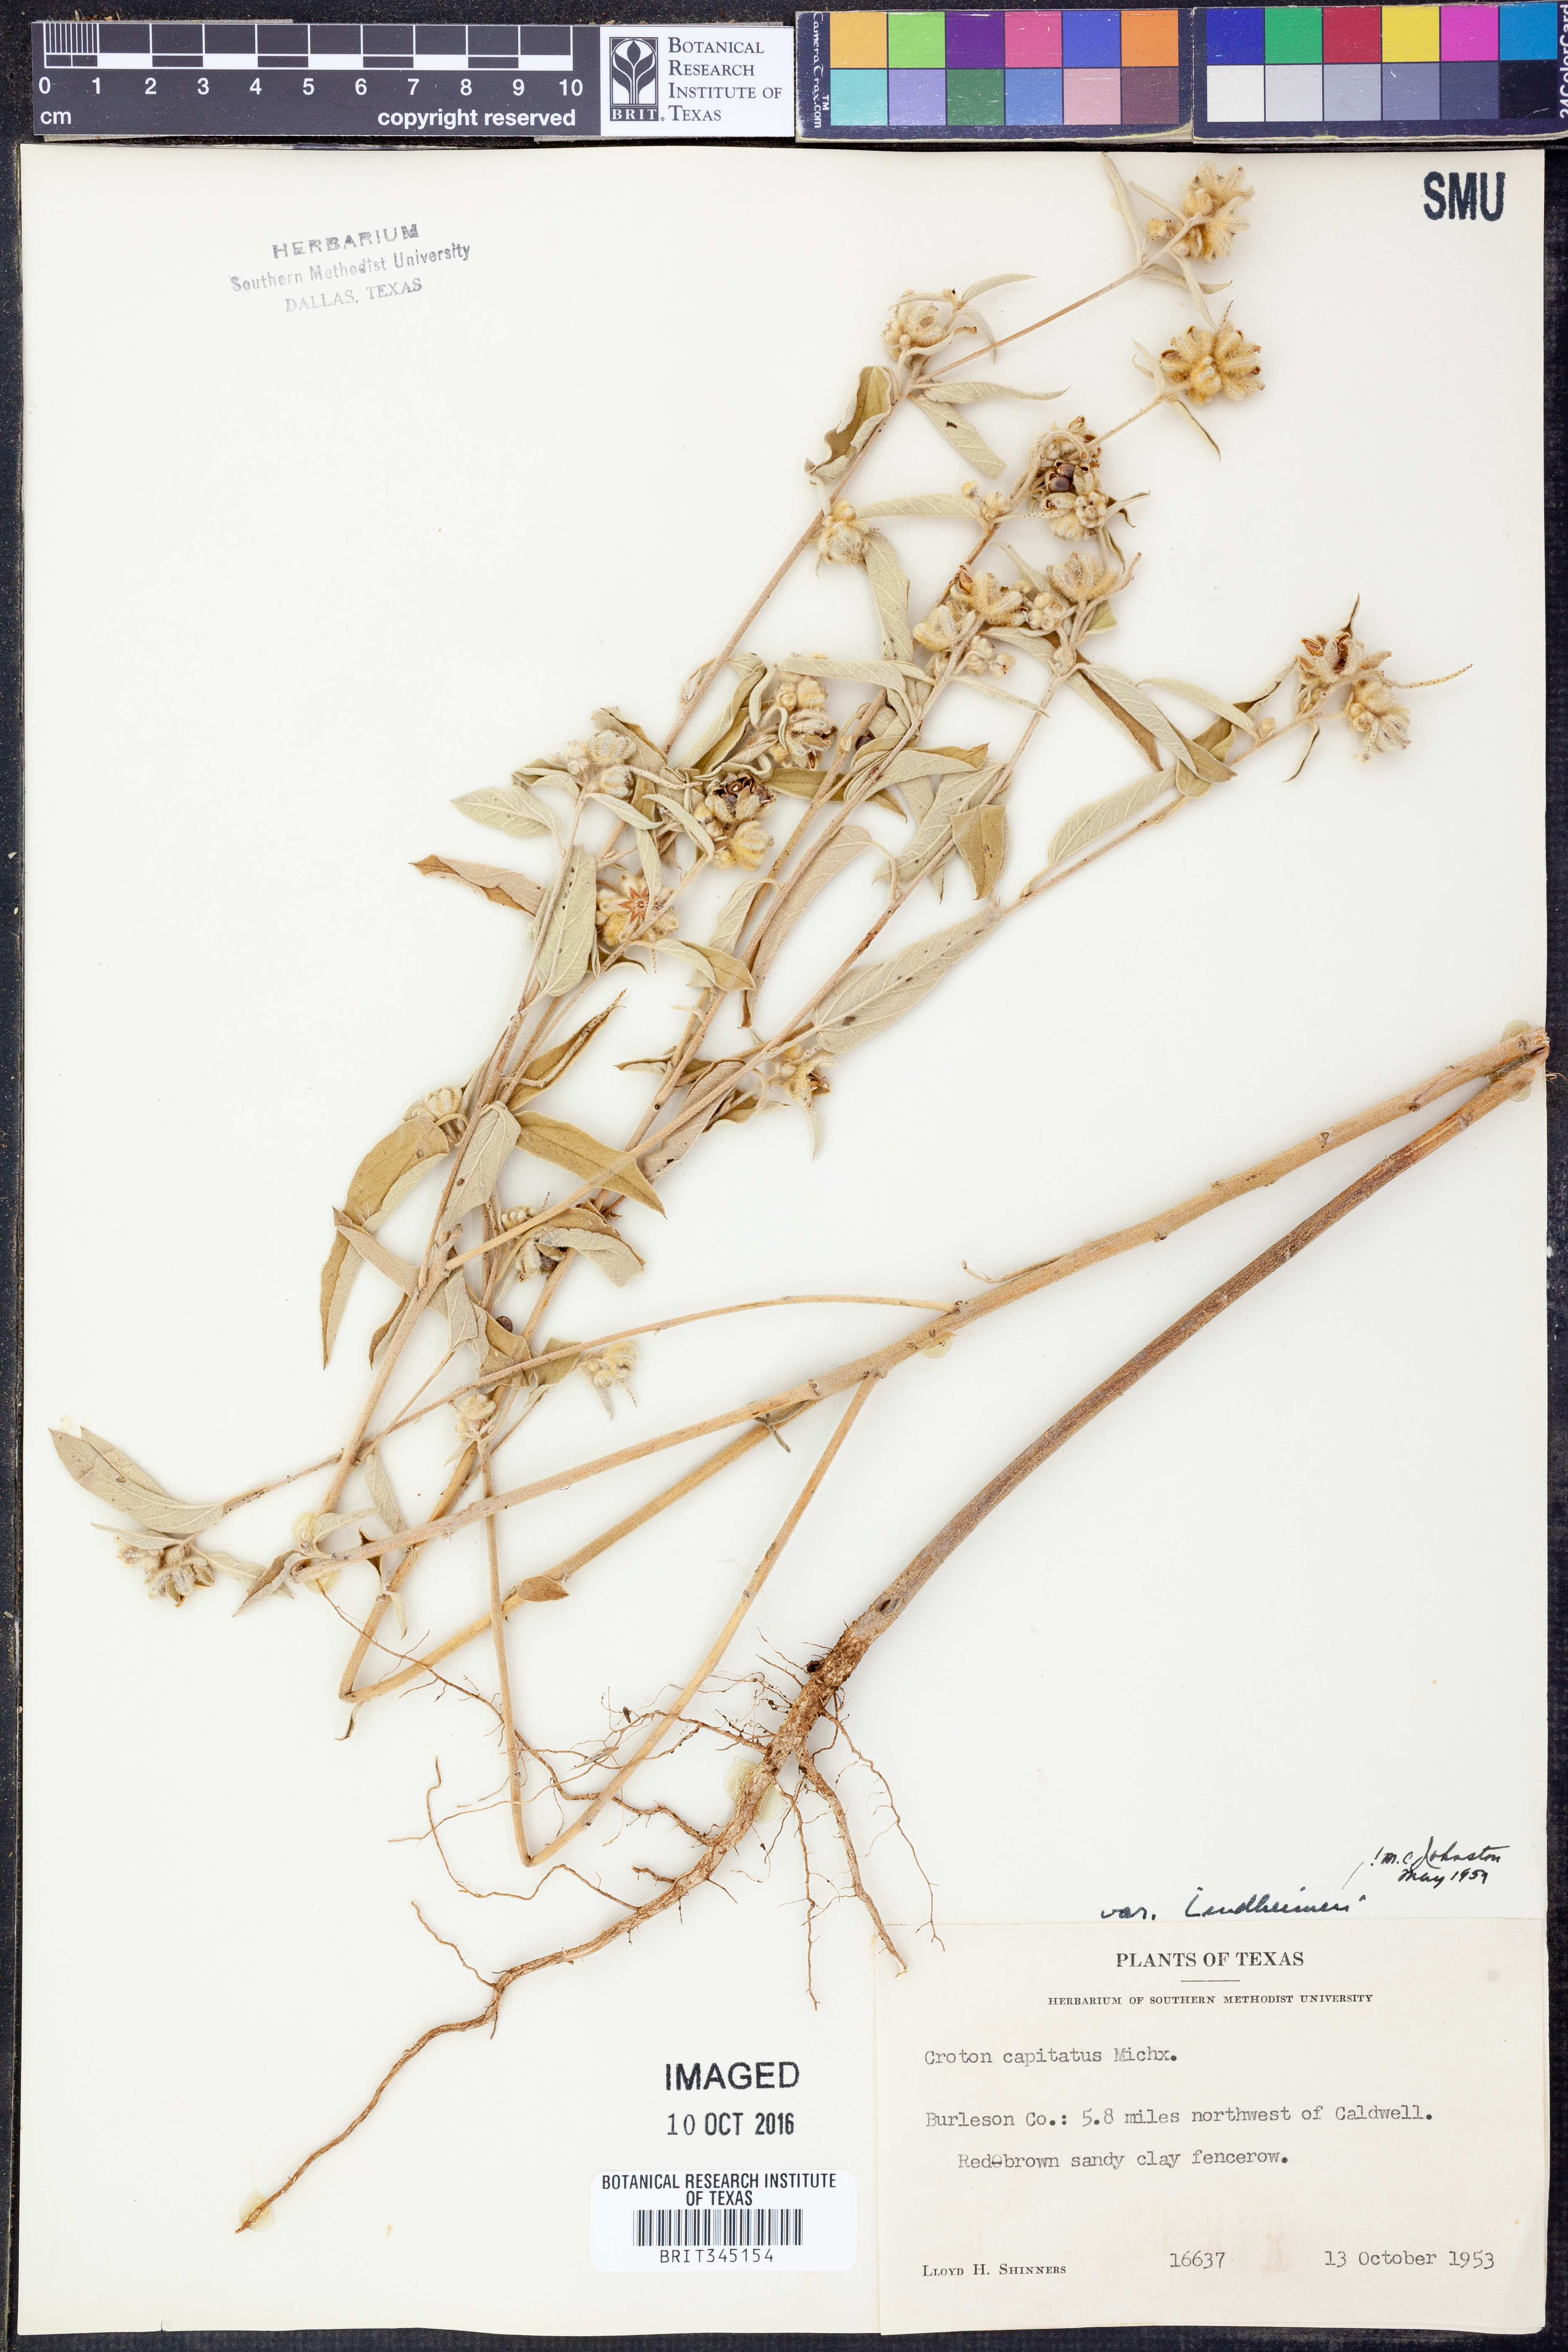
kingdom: Plantae
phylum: Tracheophyta
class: Magnoliopsida
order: Malpighiales
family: Euphorbiaceae
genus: Croton
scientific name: Croton lindheimeri
